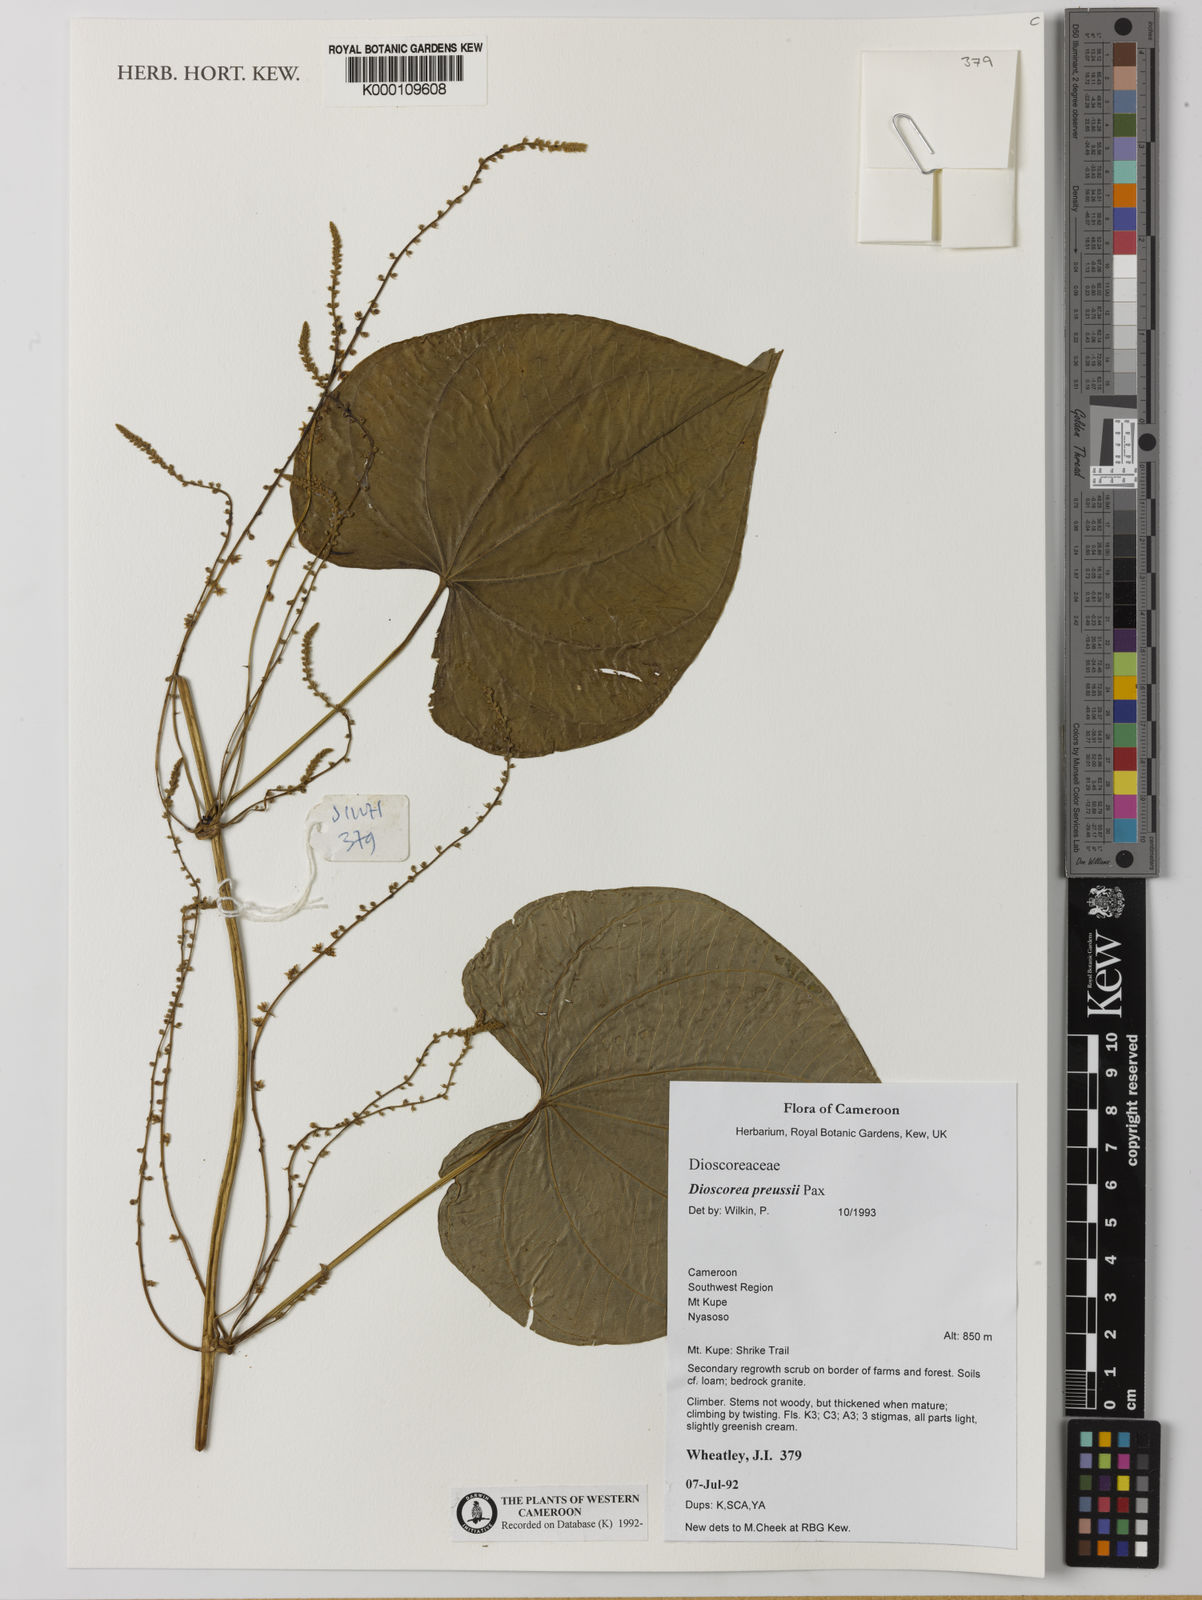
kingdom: Plantae
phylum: Tracheophyta
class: Liliopsida
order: Dioscoreales
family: Dioscoreaceae
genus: Dioscorea
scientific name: Dioscorea preussii
